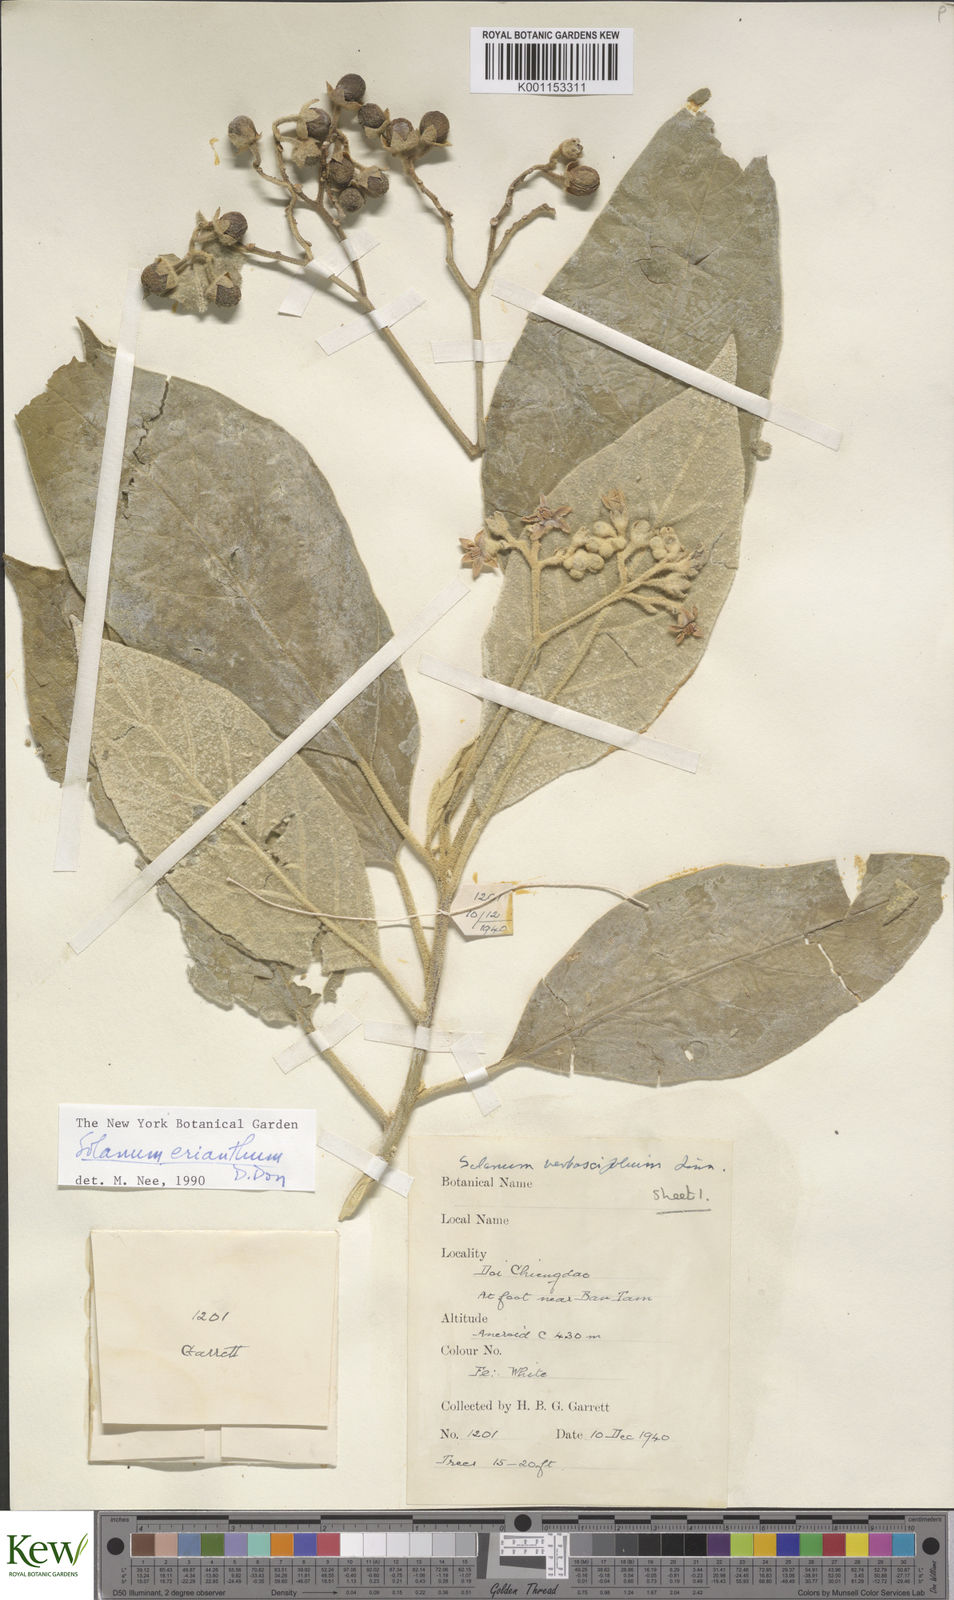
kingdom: Plantae
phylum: Tracheophyta
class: Magnoliopsida
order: Solanales
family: Solanaceae
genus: Solanum
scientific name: Solanum erianthum
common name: Tobacco-tree
